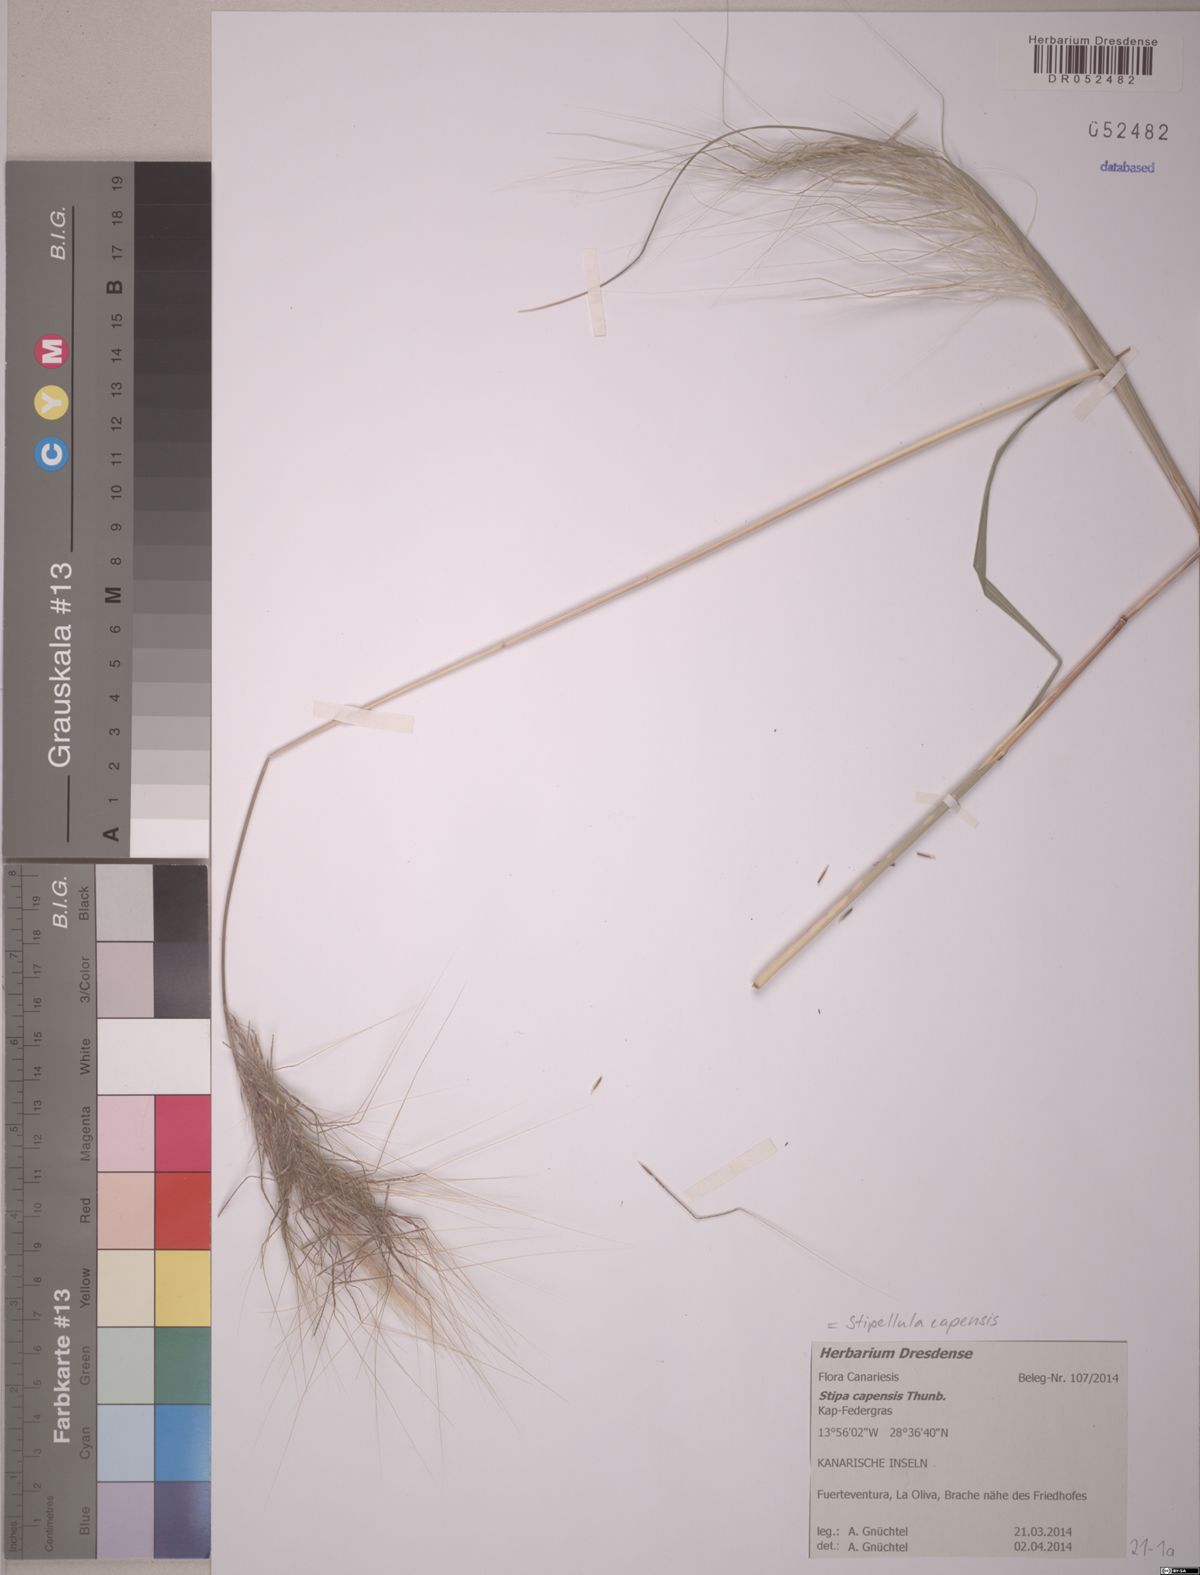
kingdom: Plantae
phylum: Tracheophyta
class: Liliopsida
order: Poales
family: Poaceae
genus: Stipellula
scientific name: Stipellula capensis
